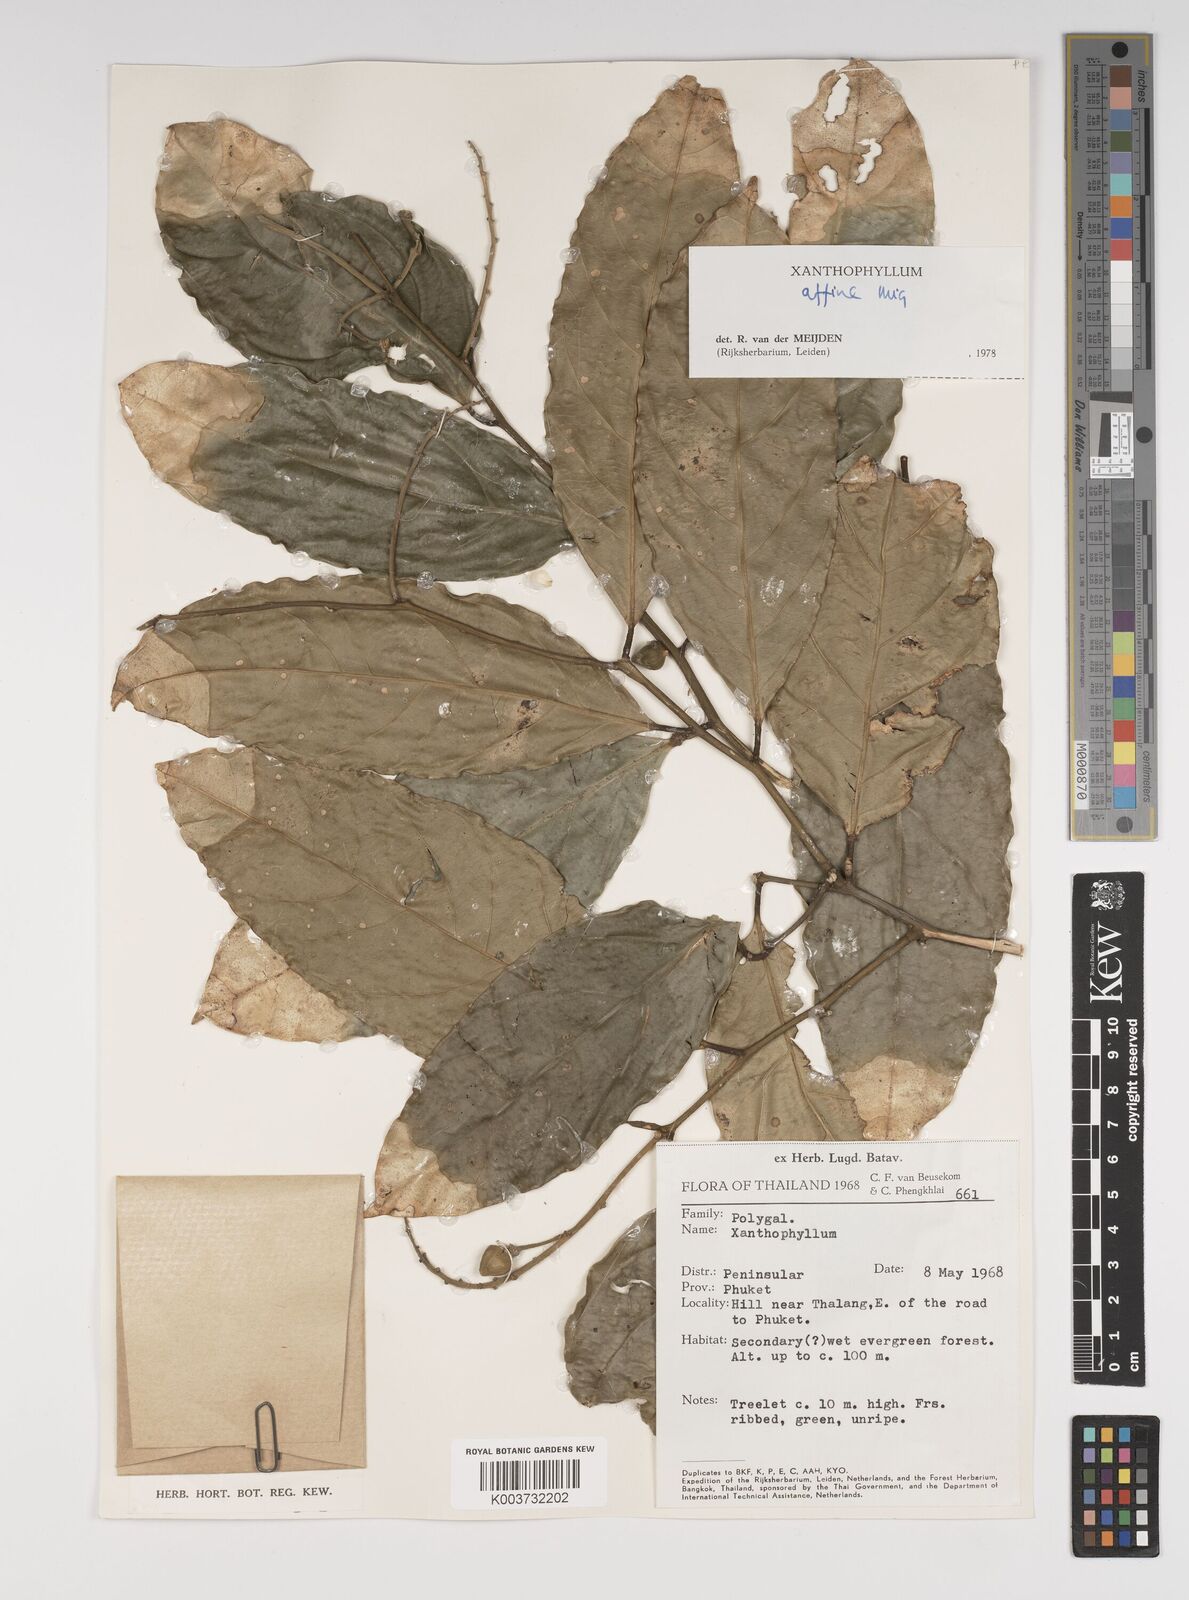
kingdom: Plantae
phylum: Tracheophyta
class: Magnoliopsida
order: Fabales
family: Polygalaceae
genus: Xanthophyllum
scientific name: Xanthophyllum flavescens
